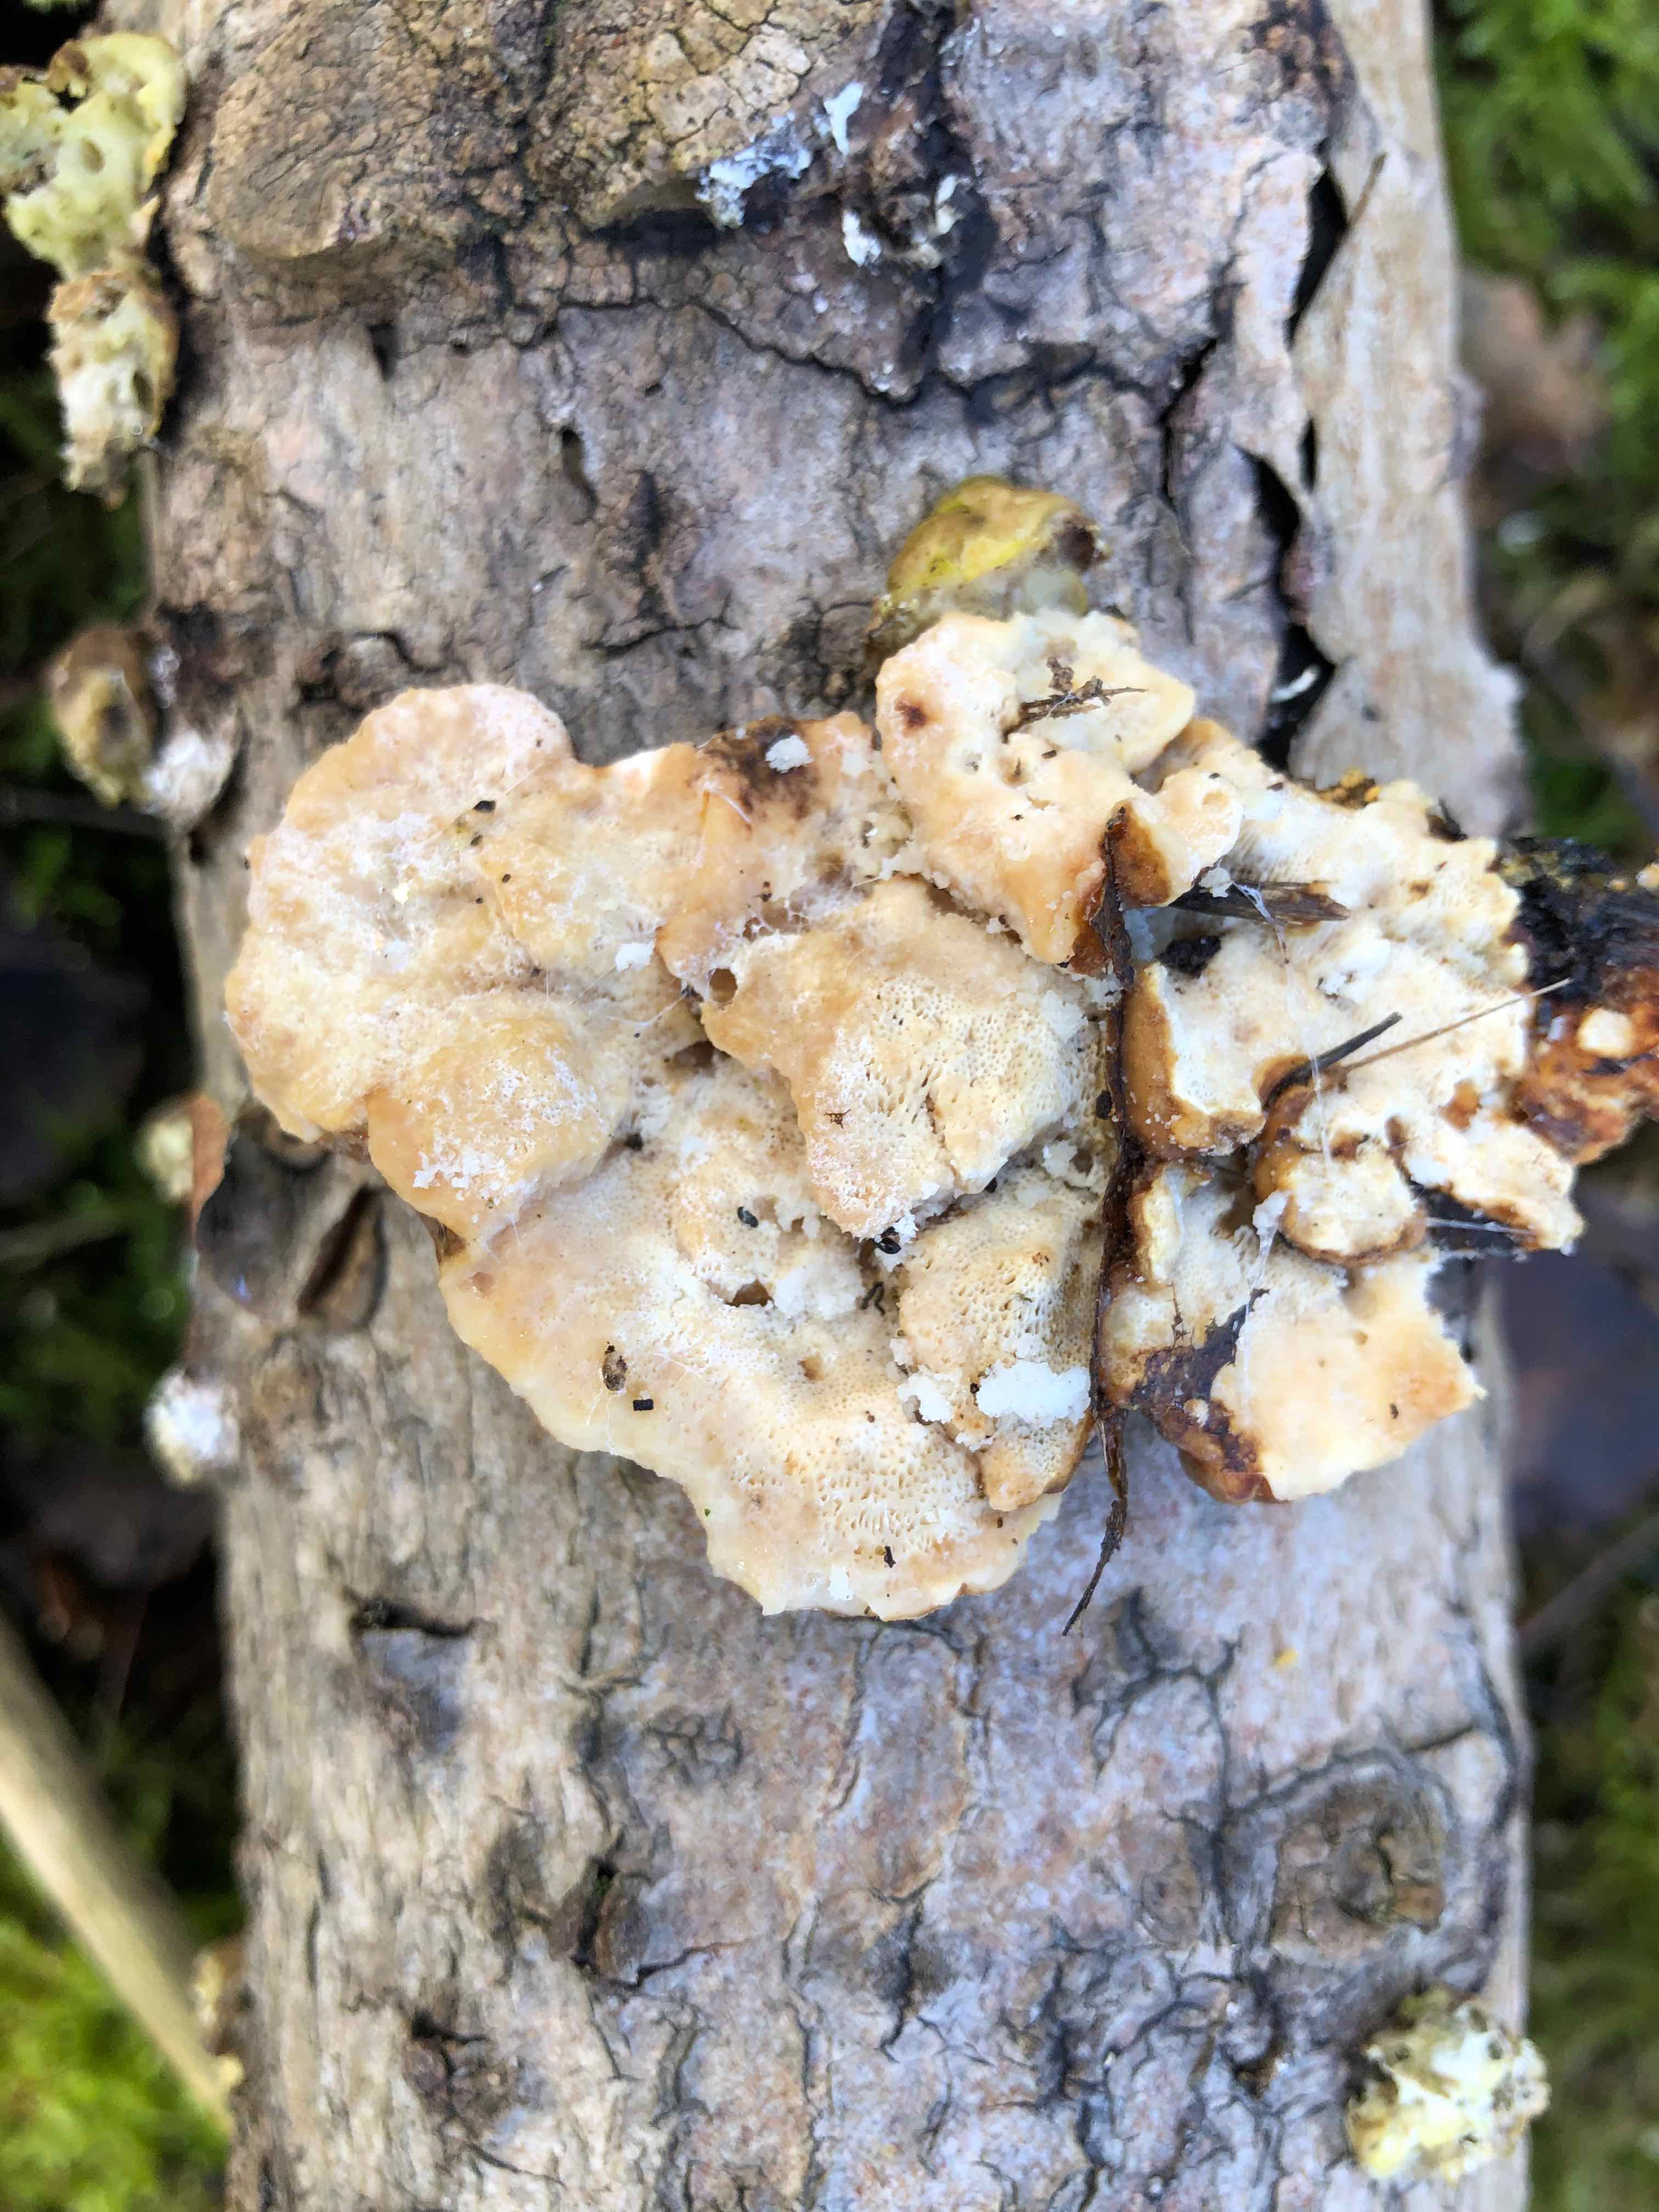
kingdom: Fungi
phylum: Basidiomycota
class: Agaricomycetes
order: Polyporales
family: Polyporaceae
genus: Trametes
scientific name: Trametes ochracea
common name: bæltet læderporesvamp
